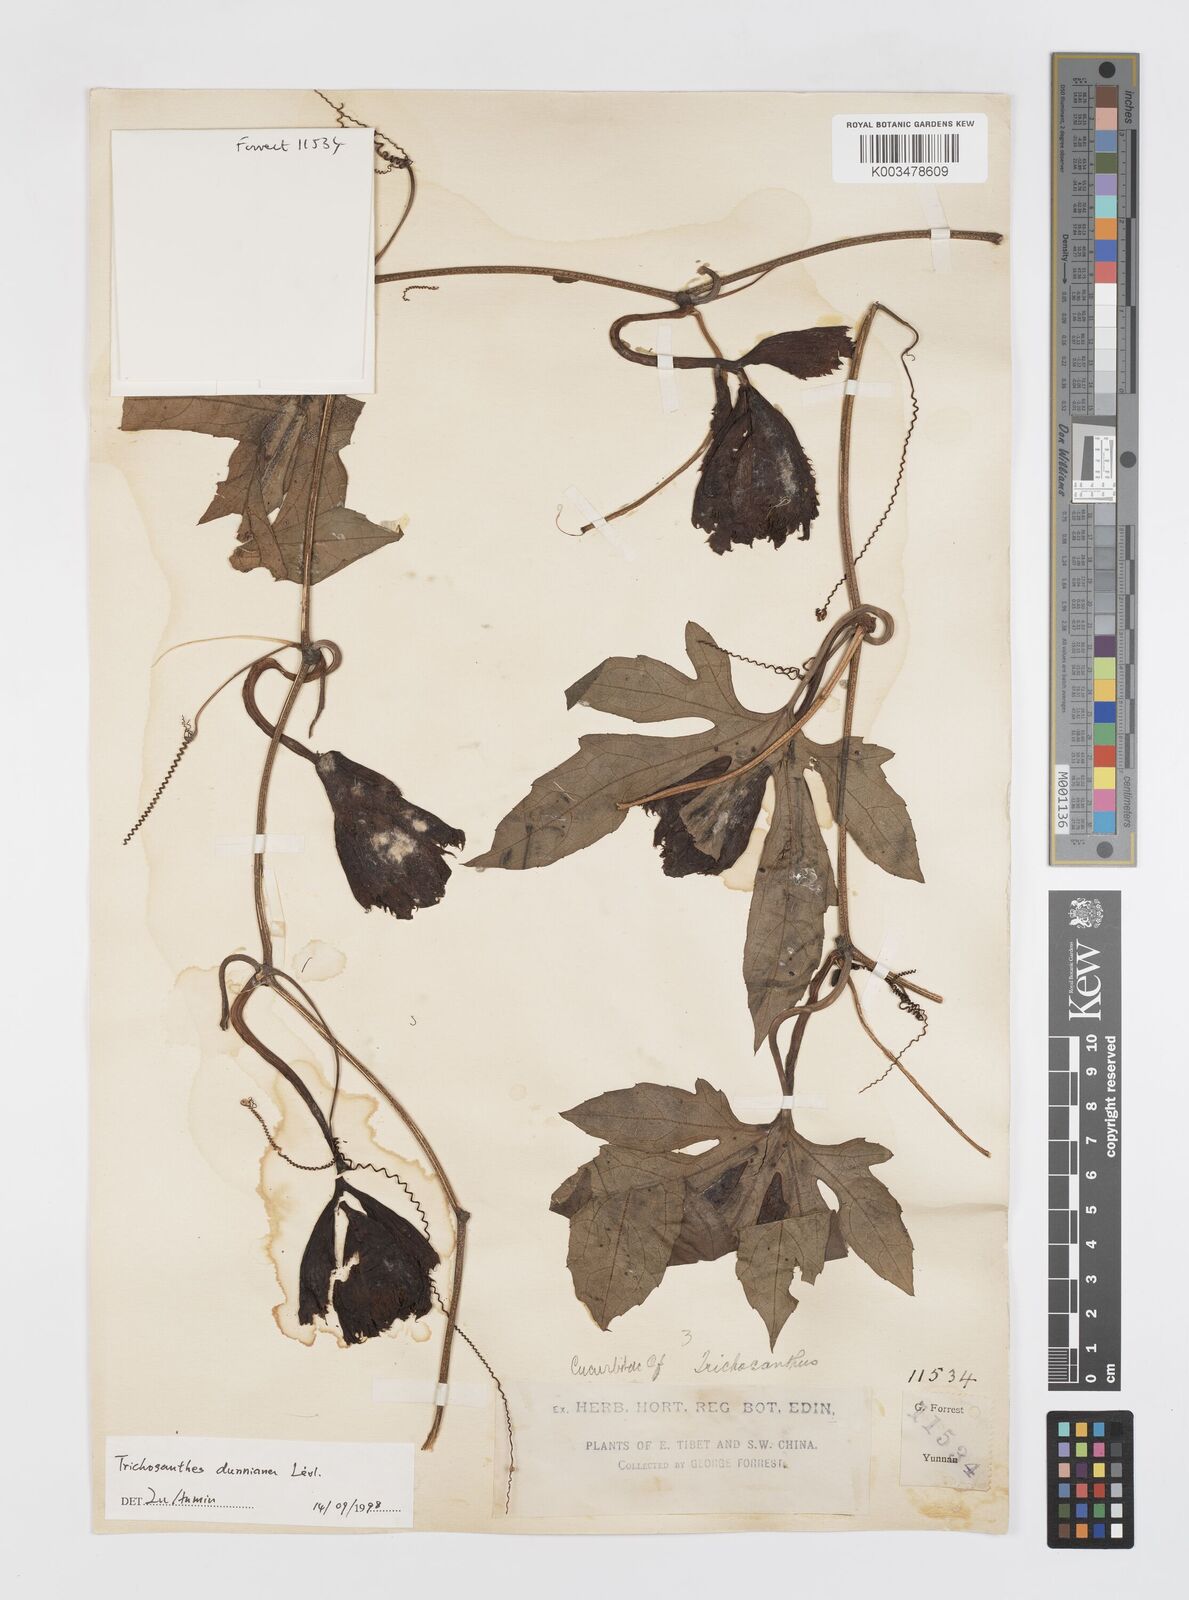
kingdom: Plantae
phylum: Tracheophyta
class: Magnoliopsida
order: Cucurbitales
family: Cucurbitaceae
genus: Trichosanthes
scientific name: Trichosanthes dunniana
